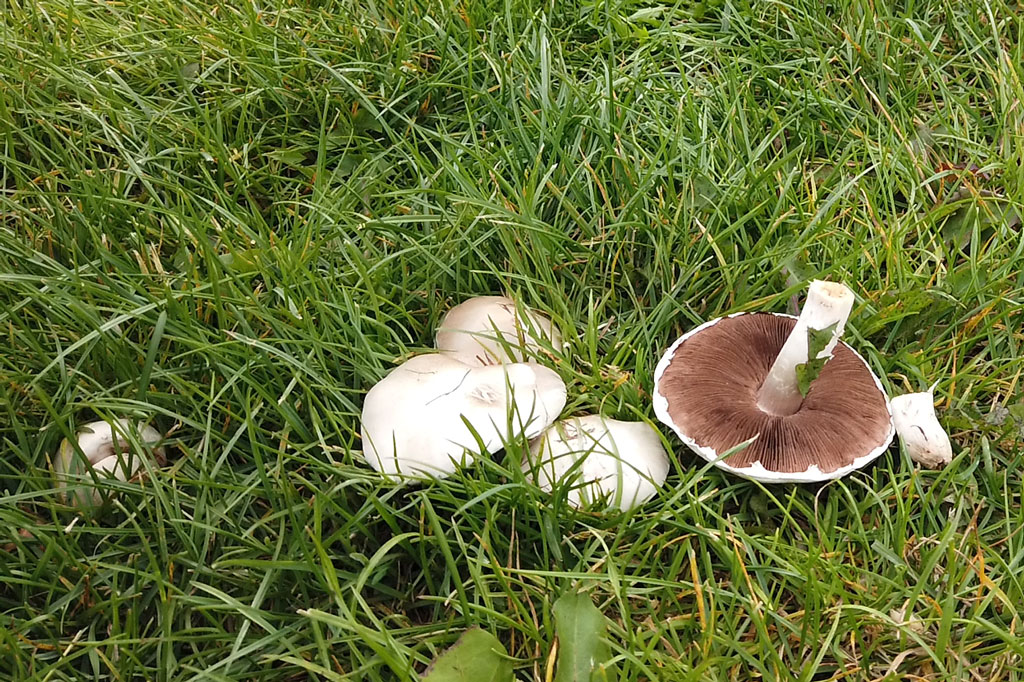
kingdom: Fungi
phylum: Basidiomycota
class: Agaricomycetes
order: Agaricales
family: Agaricaceae
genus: Agaricus
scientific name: Agaricus campestris
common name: mark-champignon
